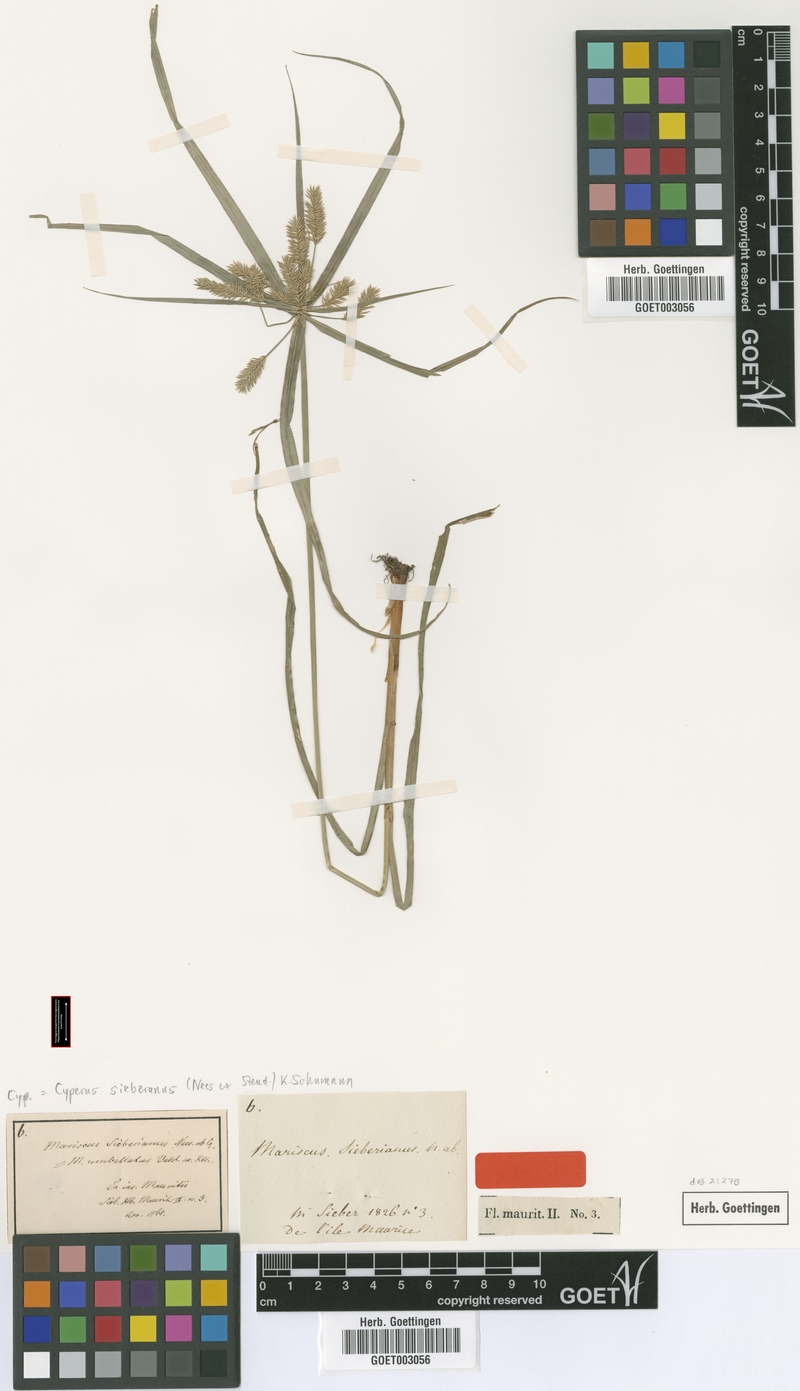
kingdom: Plantae
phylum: Tracheophyta
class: Liliopsida
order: Poales
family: Cyperaceae
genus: Cyperus
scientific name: Cyperus cyperoides
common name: Pacific island flat sedge
